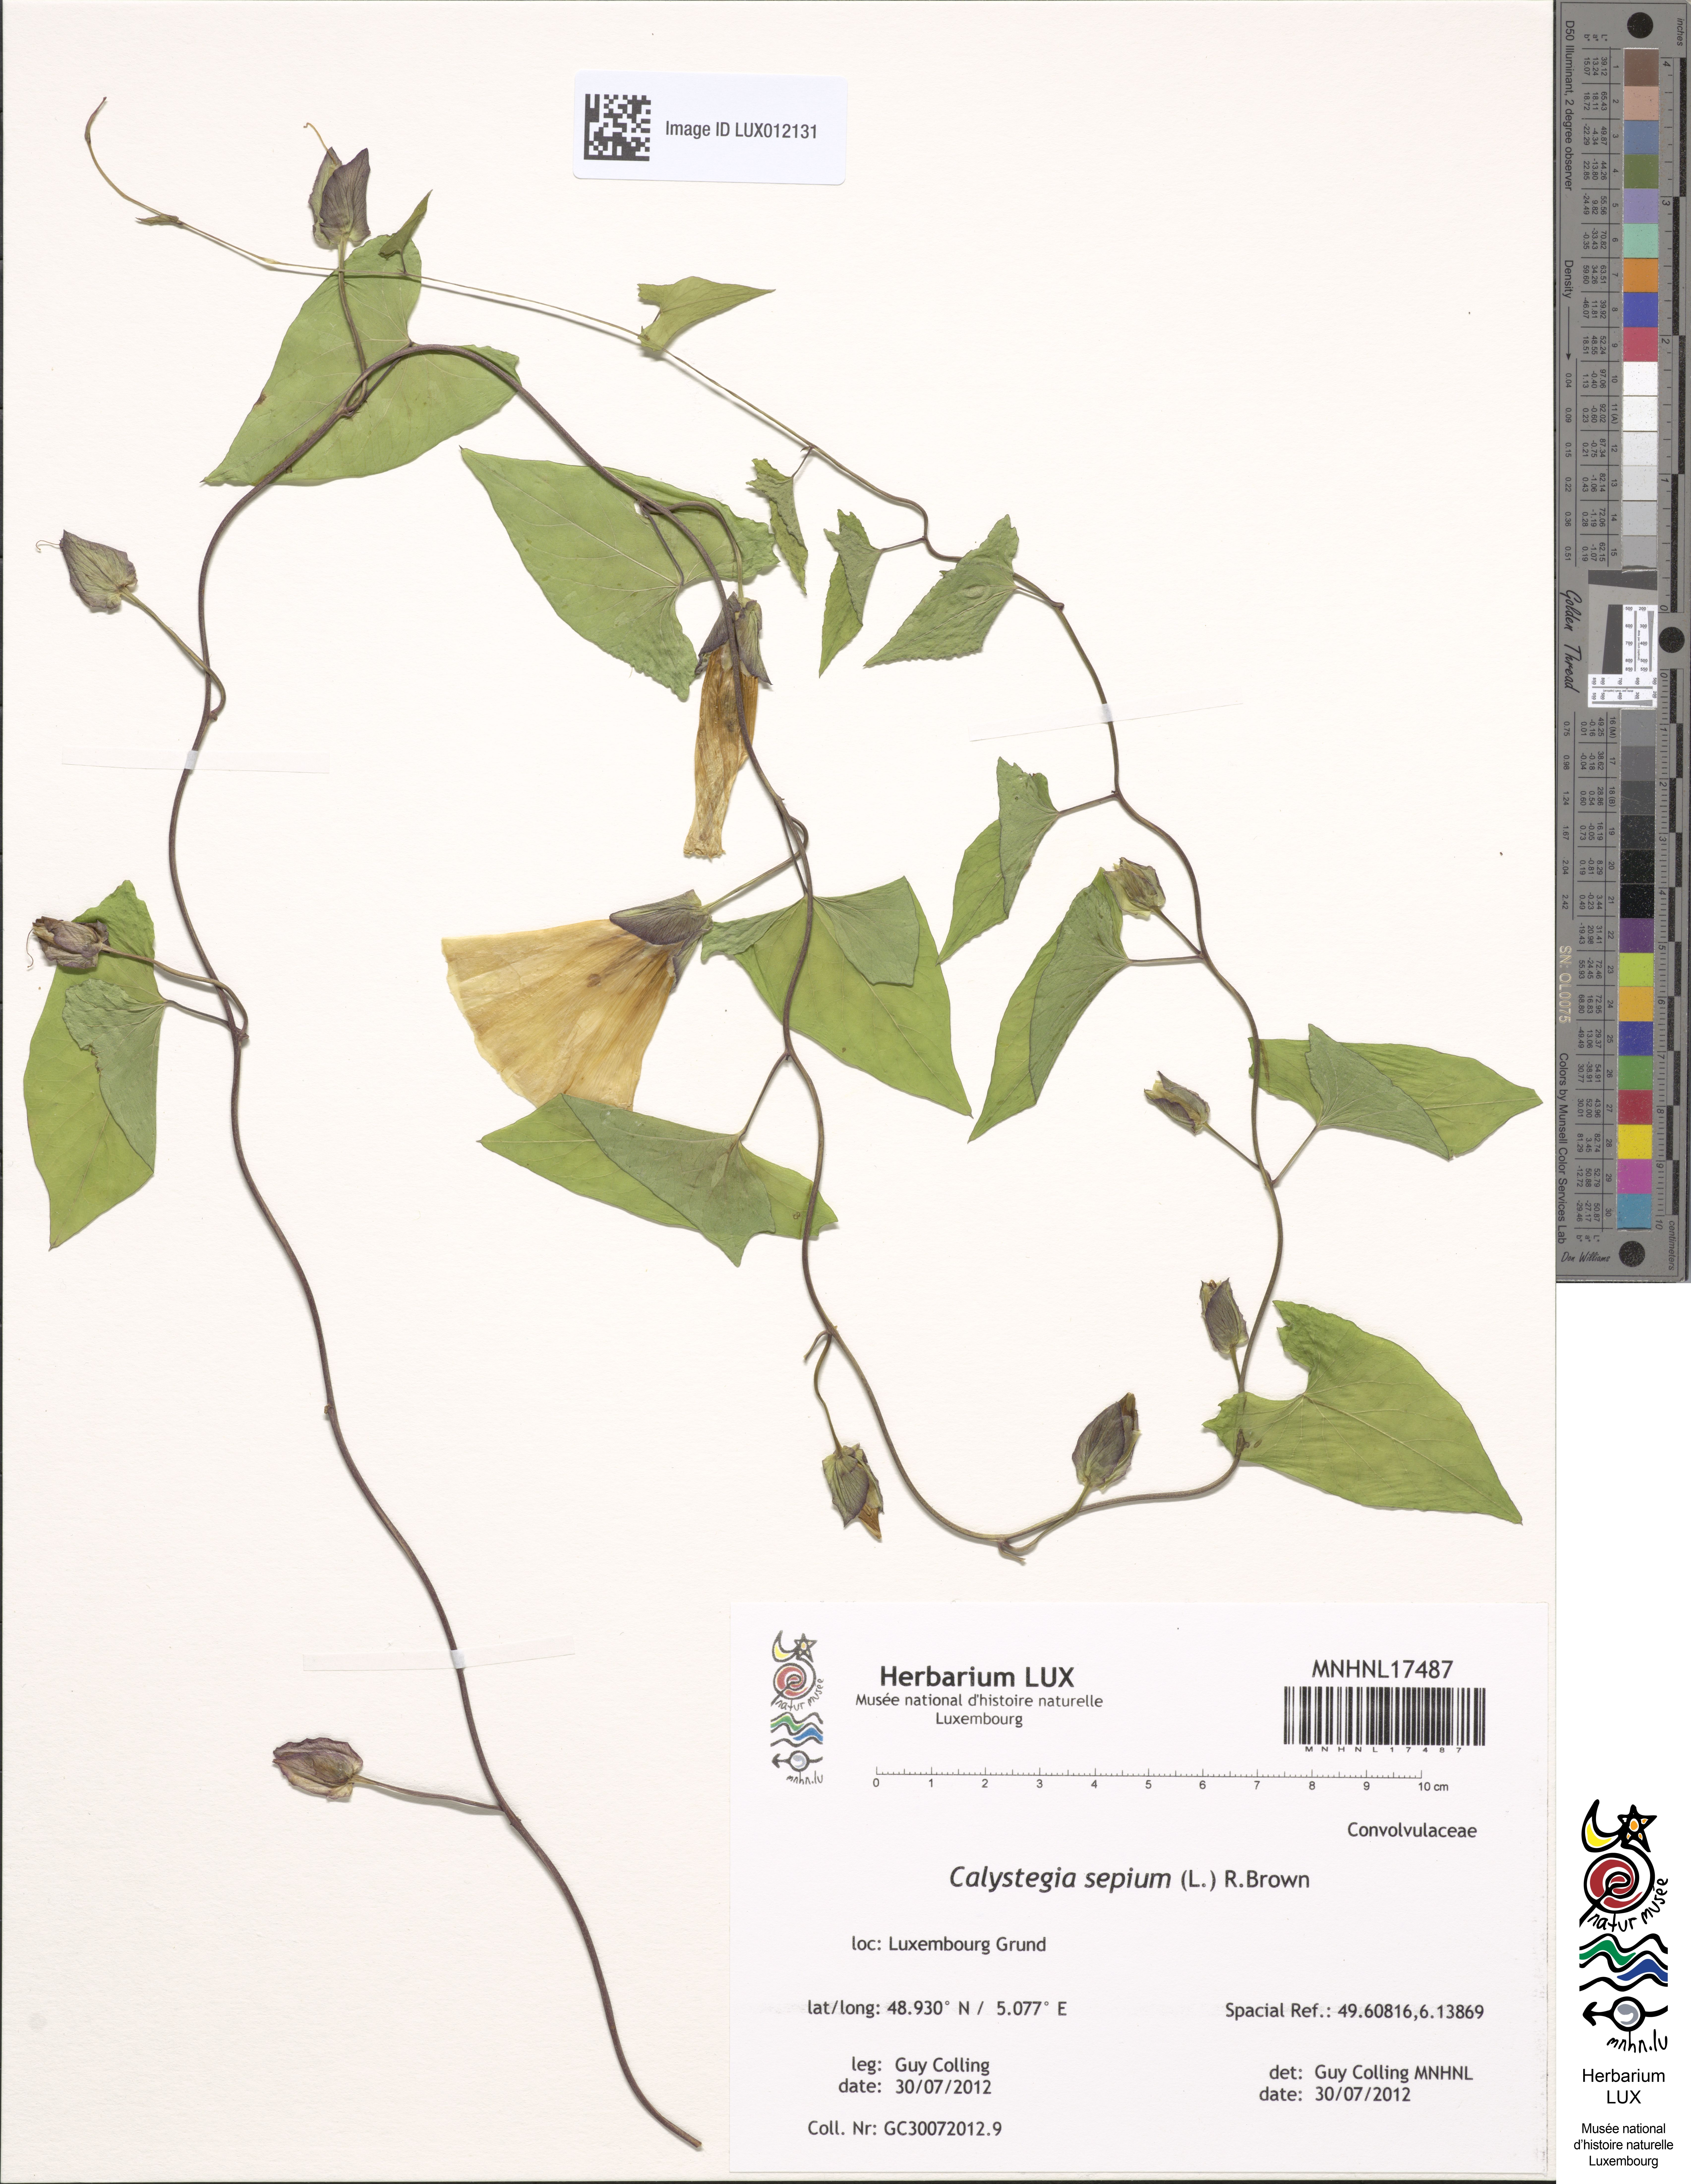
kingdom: Plantae
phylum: Tracheophyta
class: Magnoliopsida
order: Solanales
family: Convolvulaceae
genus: Calystegia
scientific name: Calystegia sepium
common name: Hedge bindweed
